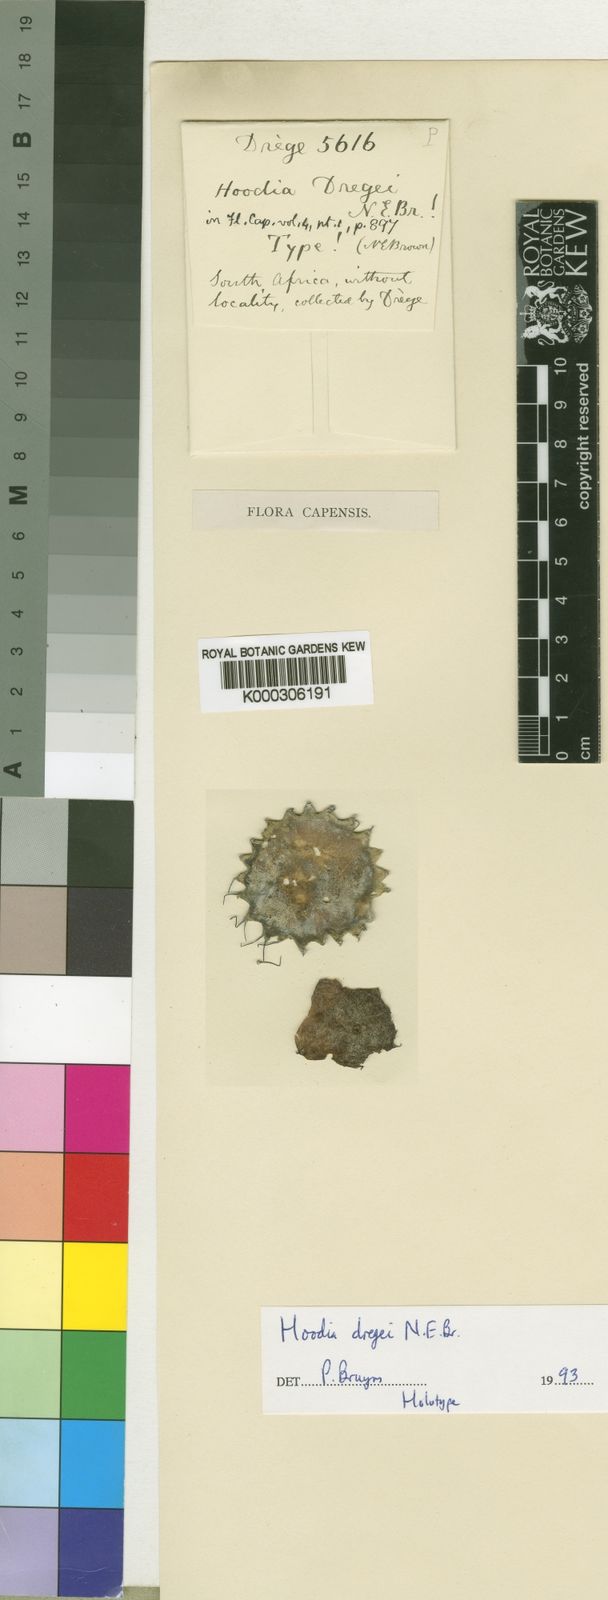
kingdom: Plantae
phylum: Tracheophyta
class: Magnoliopsida
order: Gentianales
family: Apocynaceae
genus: Ceropegia
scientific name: Ceropegia dregei
